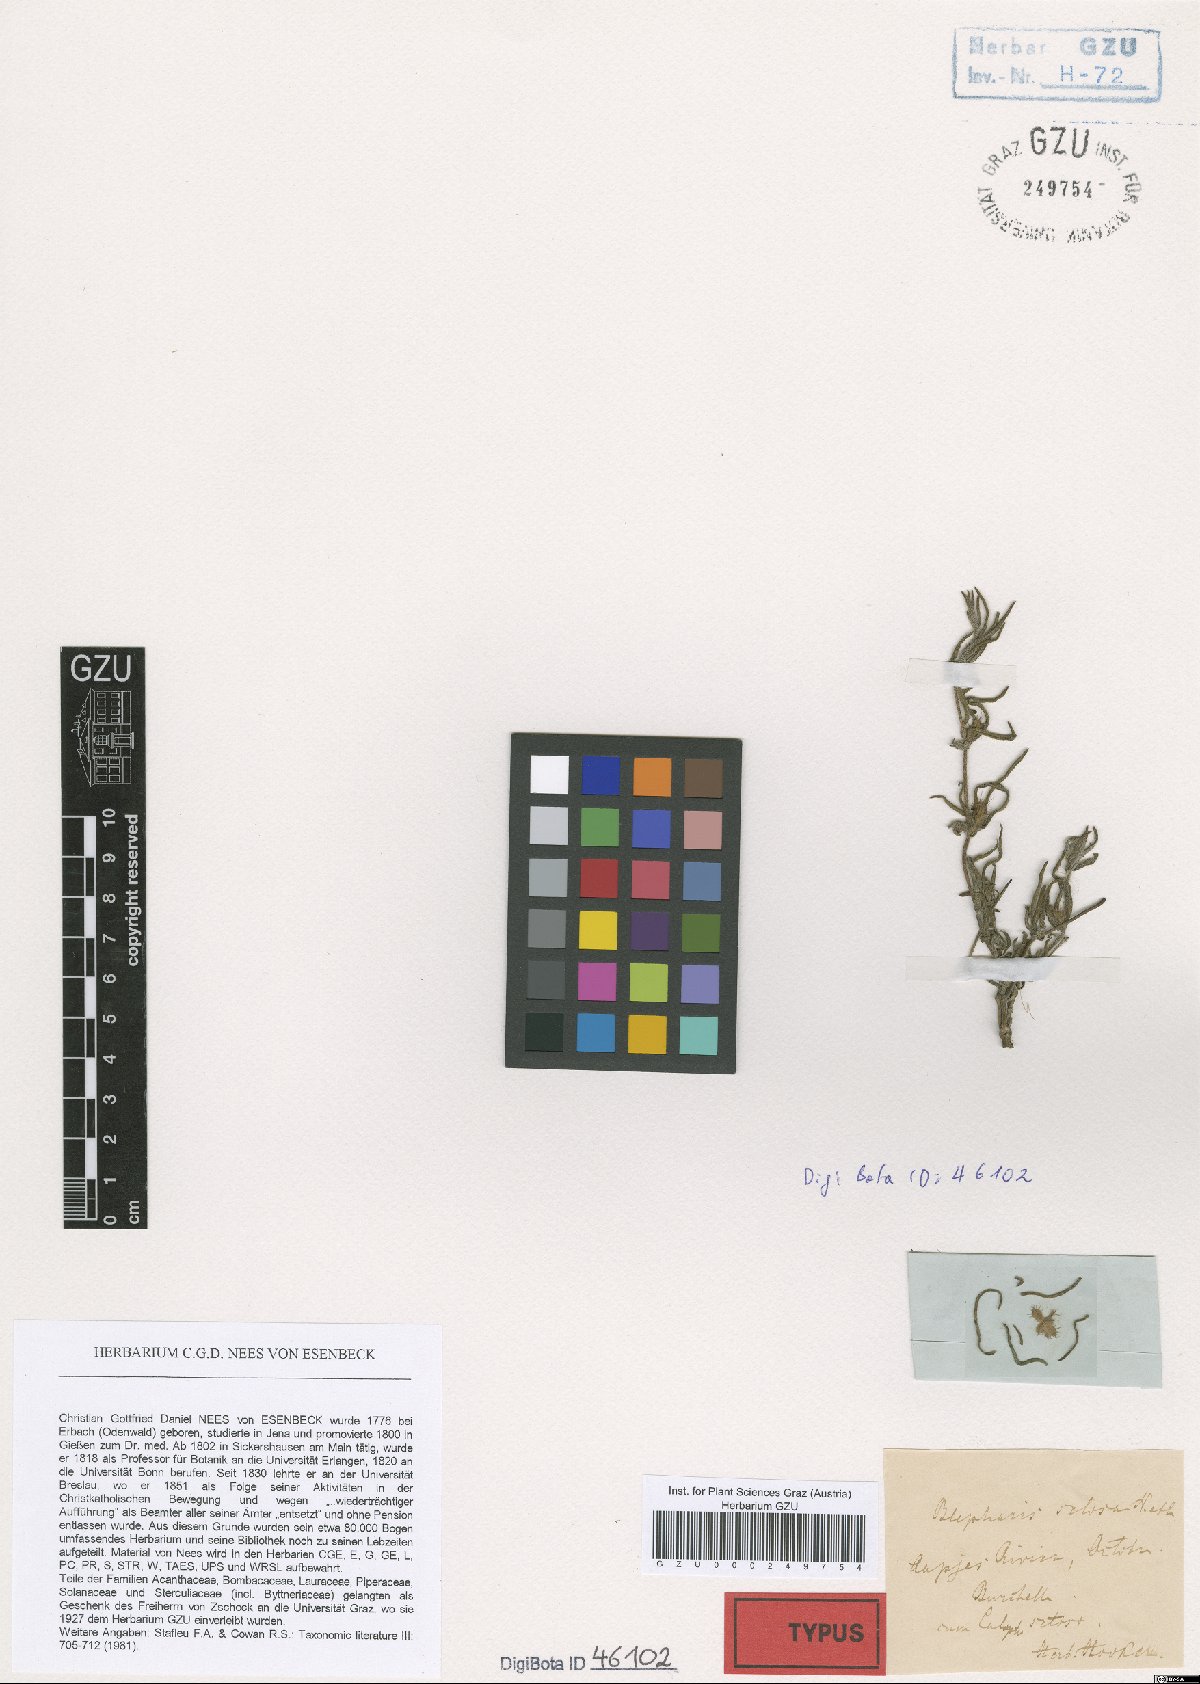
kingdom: Plantae
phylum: Tracheophyta
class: Magnoliopsida
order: Lamiales
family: Acanthaceae
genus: Blepharis
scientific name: Blepharis integrifolia
